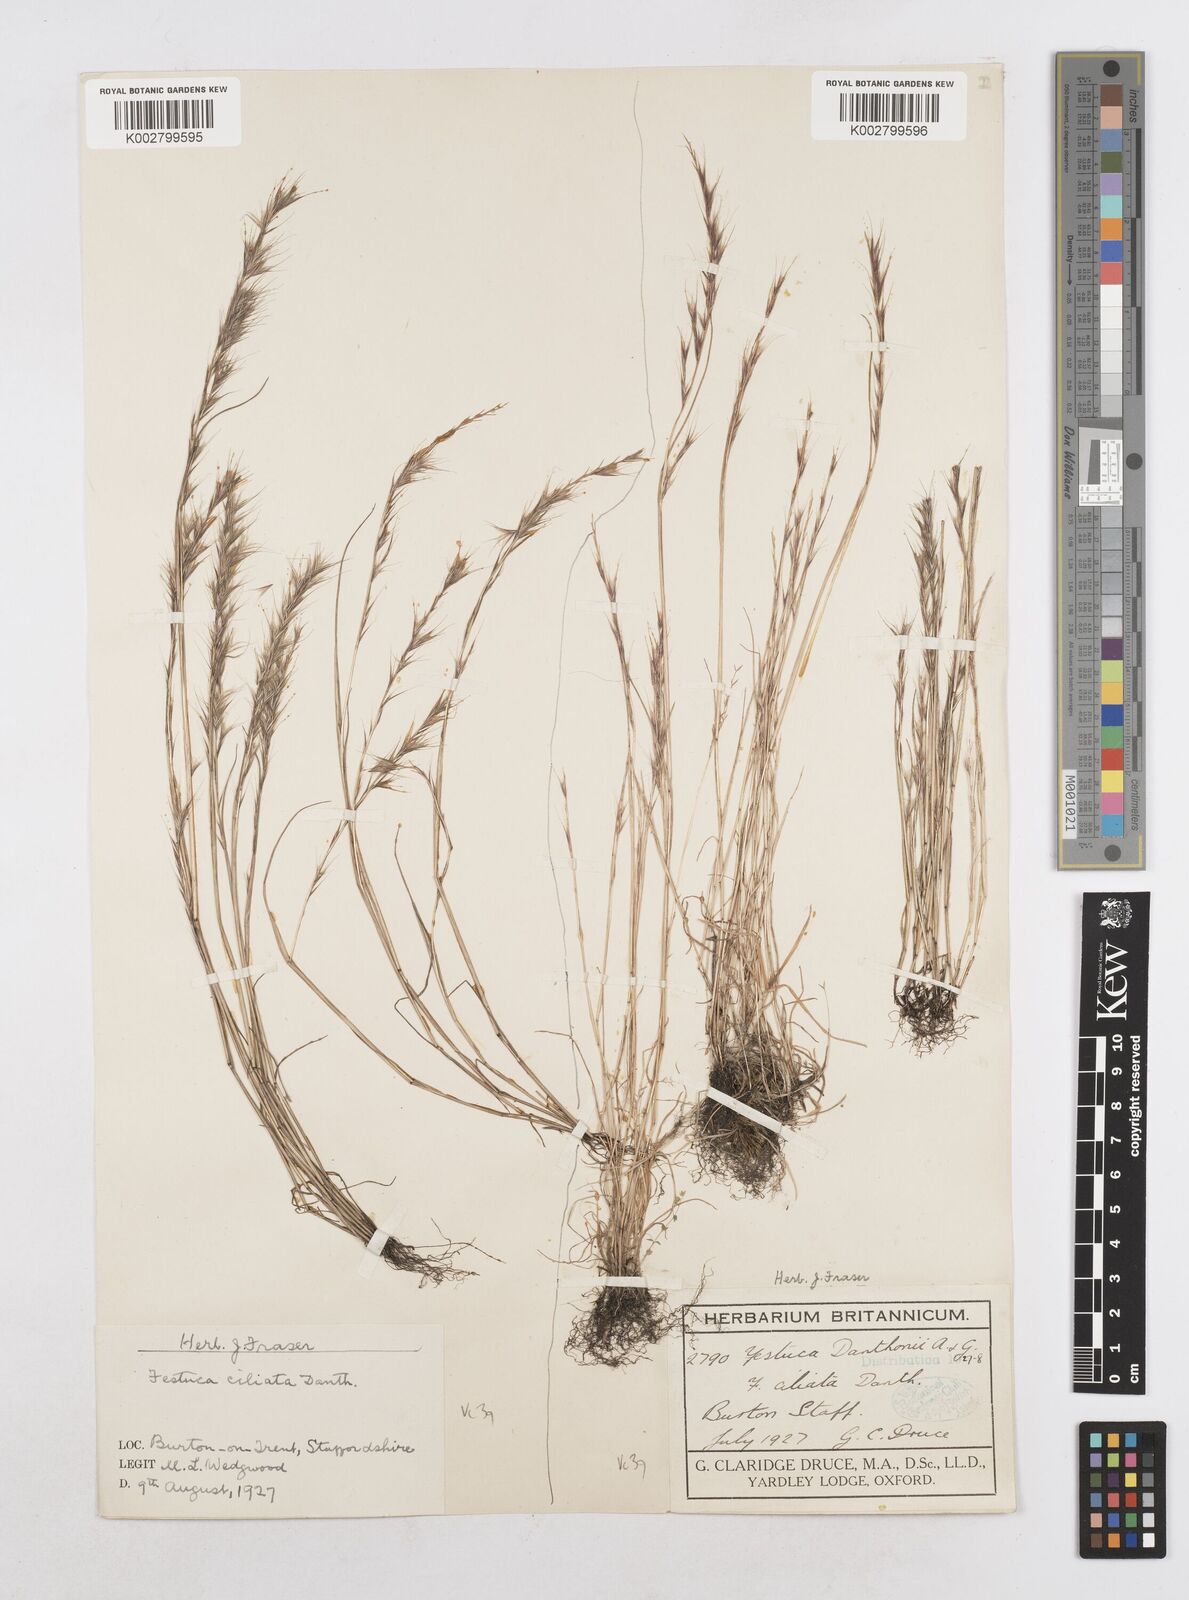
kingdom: Plantae
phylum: Tracheophyta
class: Liliopsida
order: Poales
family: Poaceae
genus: Festuca
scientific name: Festuca
